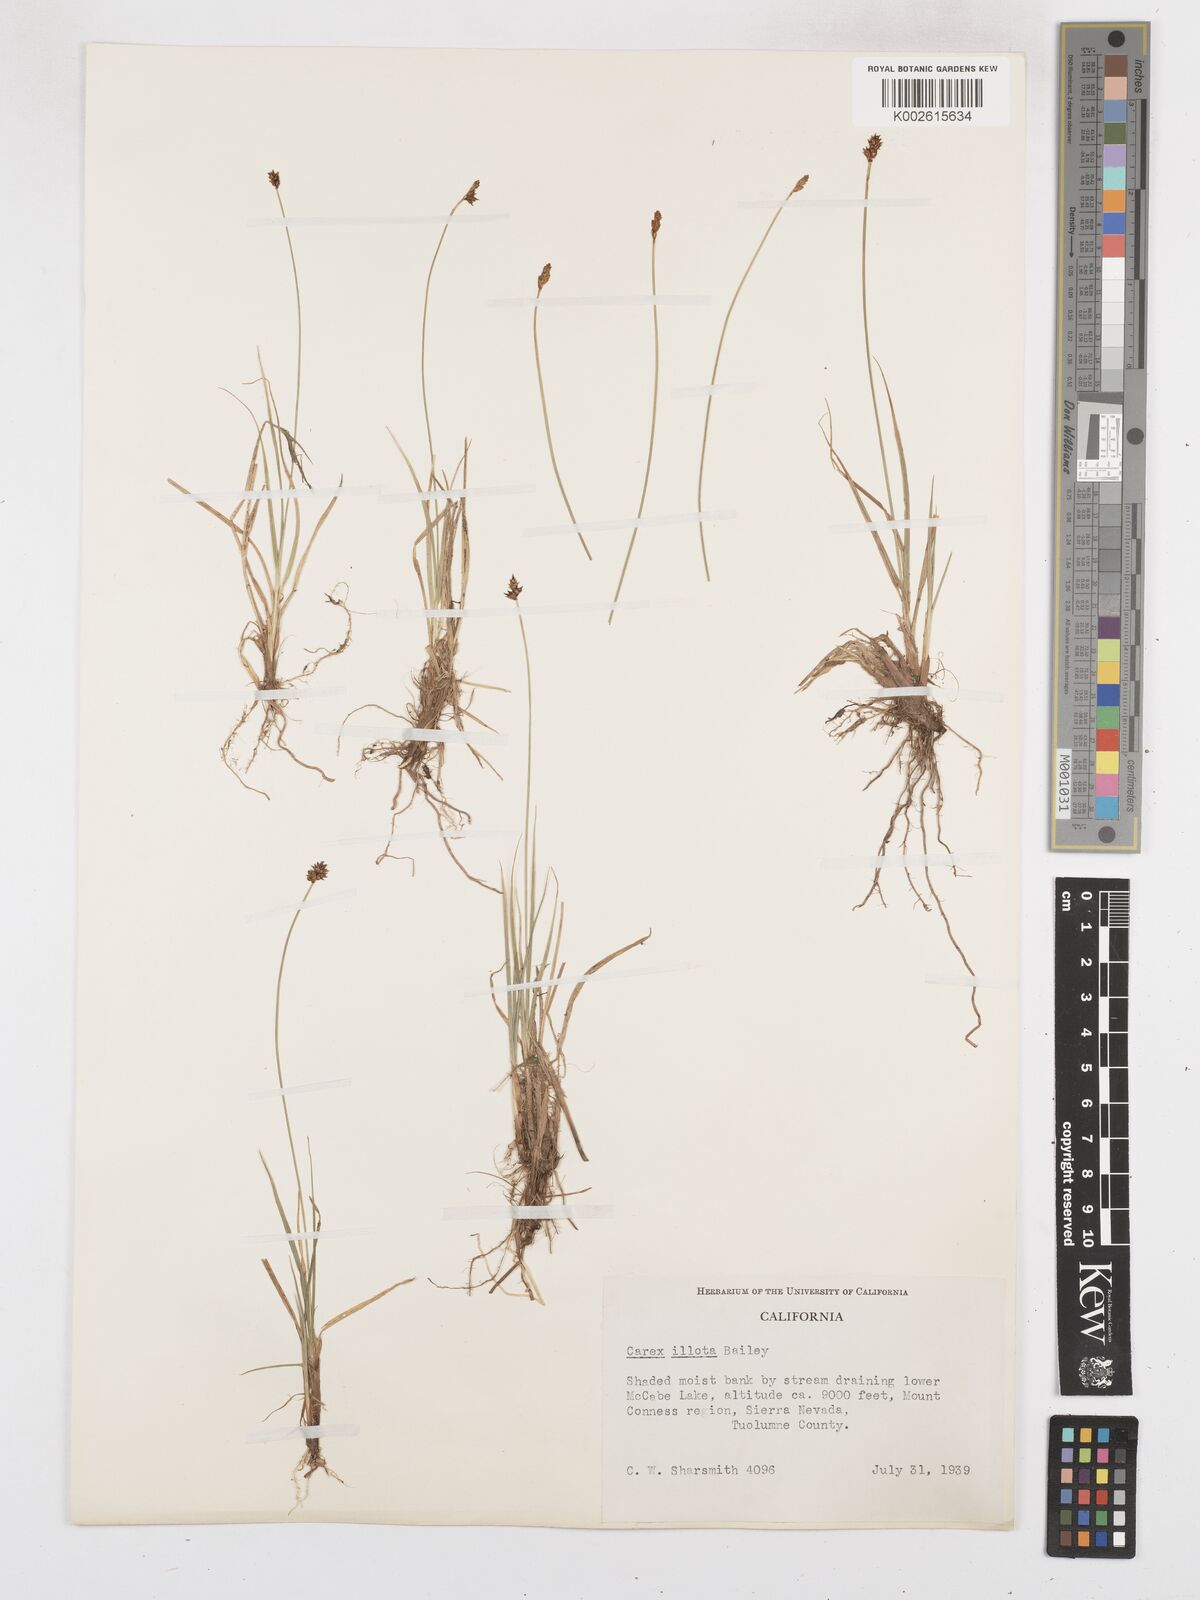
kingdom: Plantae
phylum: Tracheophyta
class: Liliopsida
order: Poales
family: Cyperaceae
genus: Carex
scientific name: Carex illota
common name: Sheep sedge
